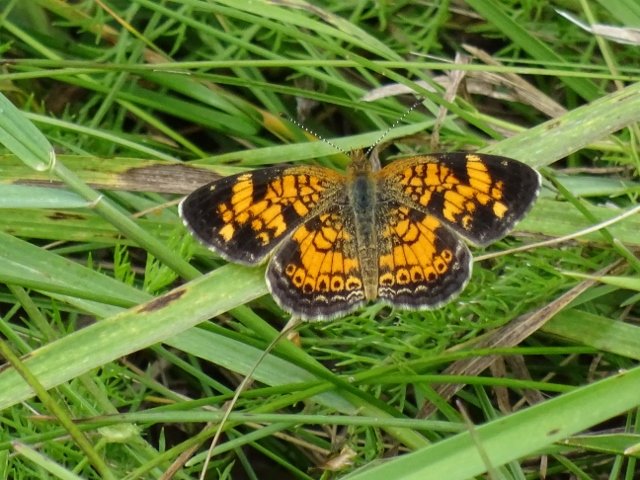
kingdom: Animalia
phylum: Arthropoda
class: Insecta
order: Lepidoptera
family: Nymphalidae
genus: Phyciodes
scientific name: Phyciodes tharos
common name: Pearl Crescent
